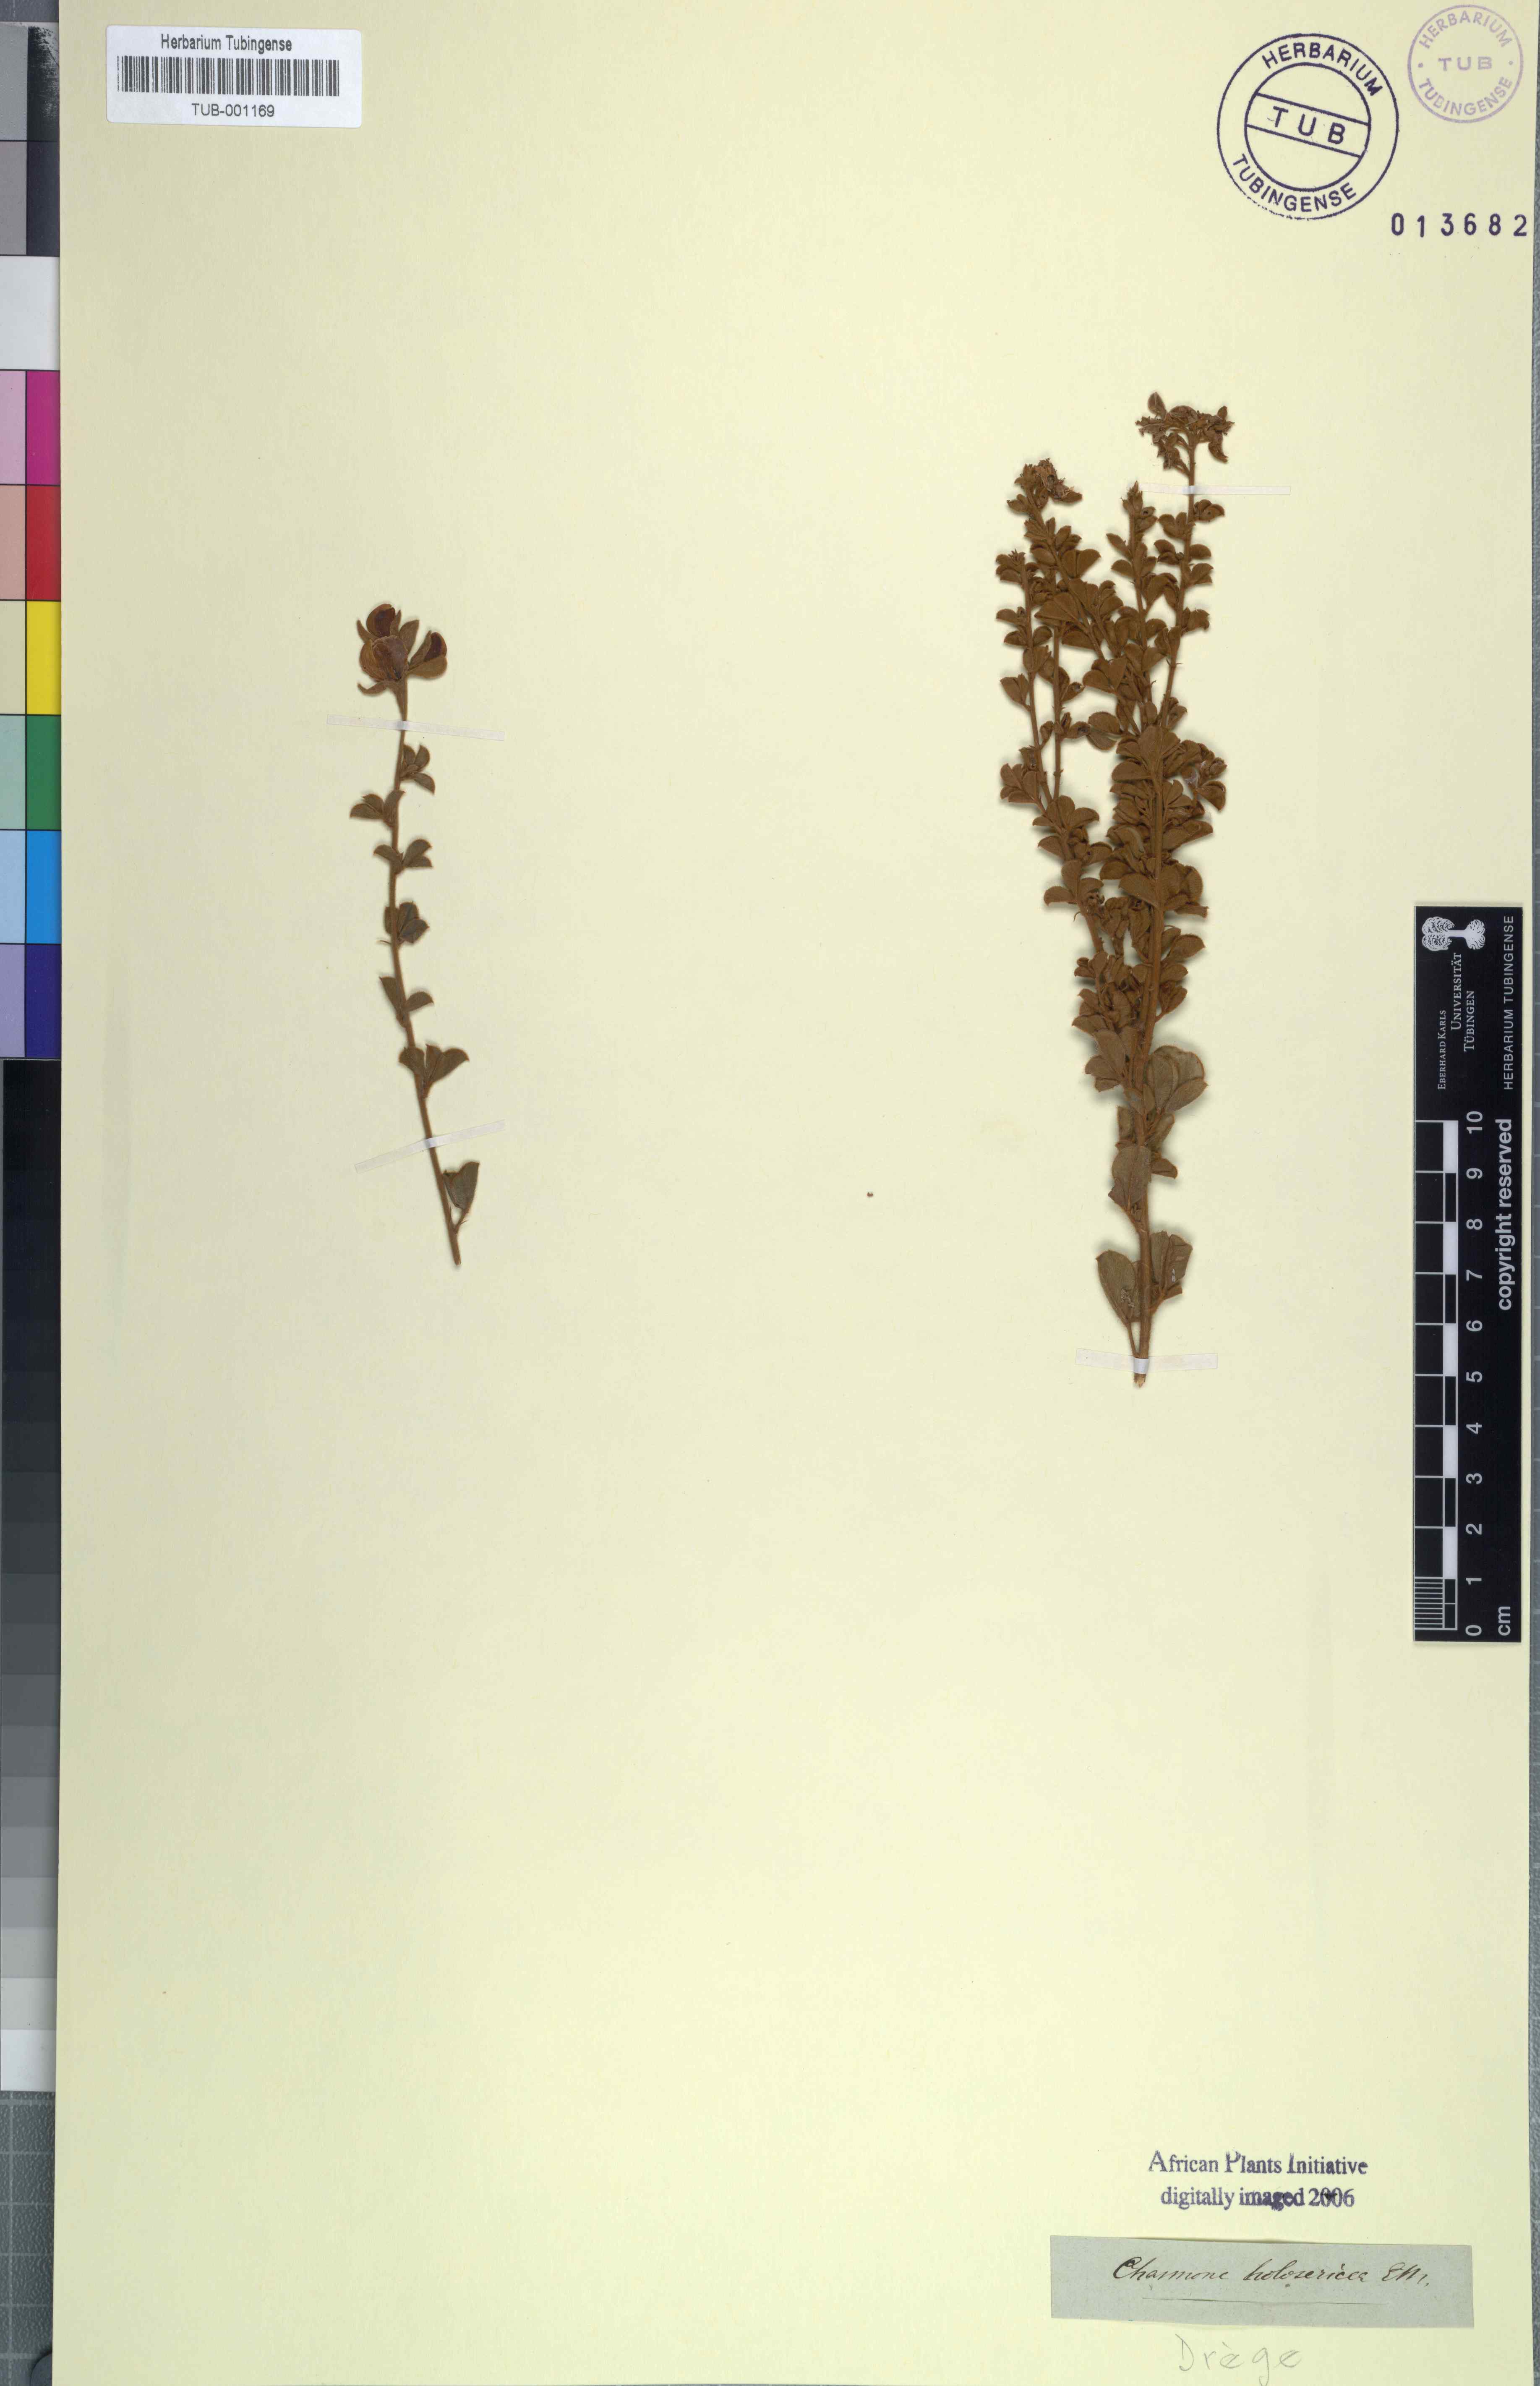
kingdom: Plantae
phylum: Tracheophyta
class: Magnoliopsida
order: Fabales
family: Fabaceae
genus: Argyrolobium
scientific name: Argyrolobium trifoliatum
